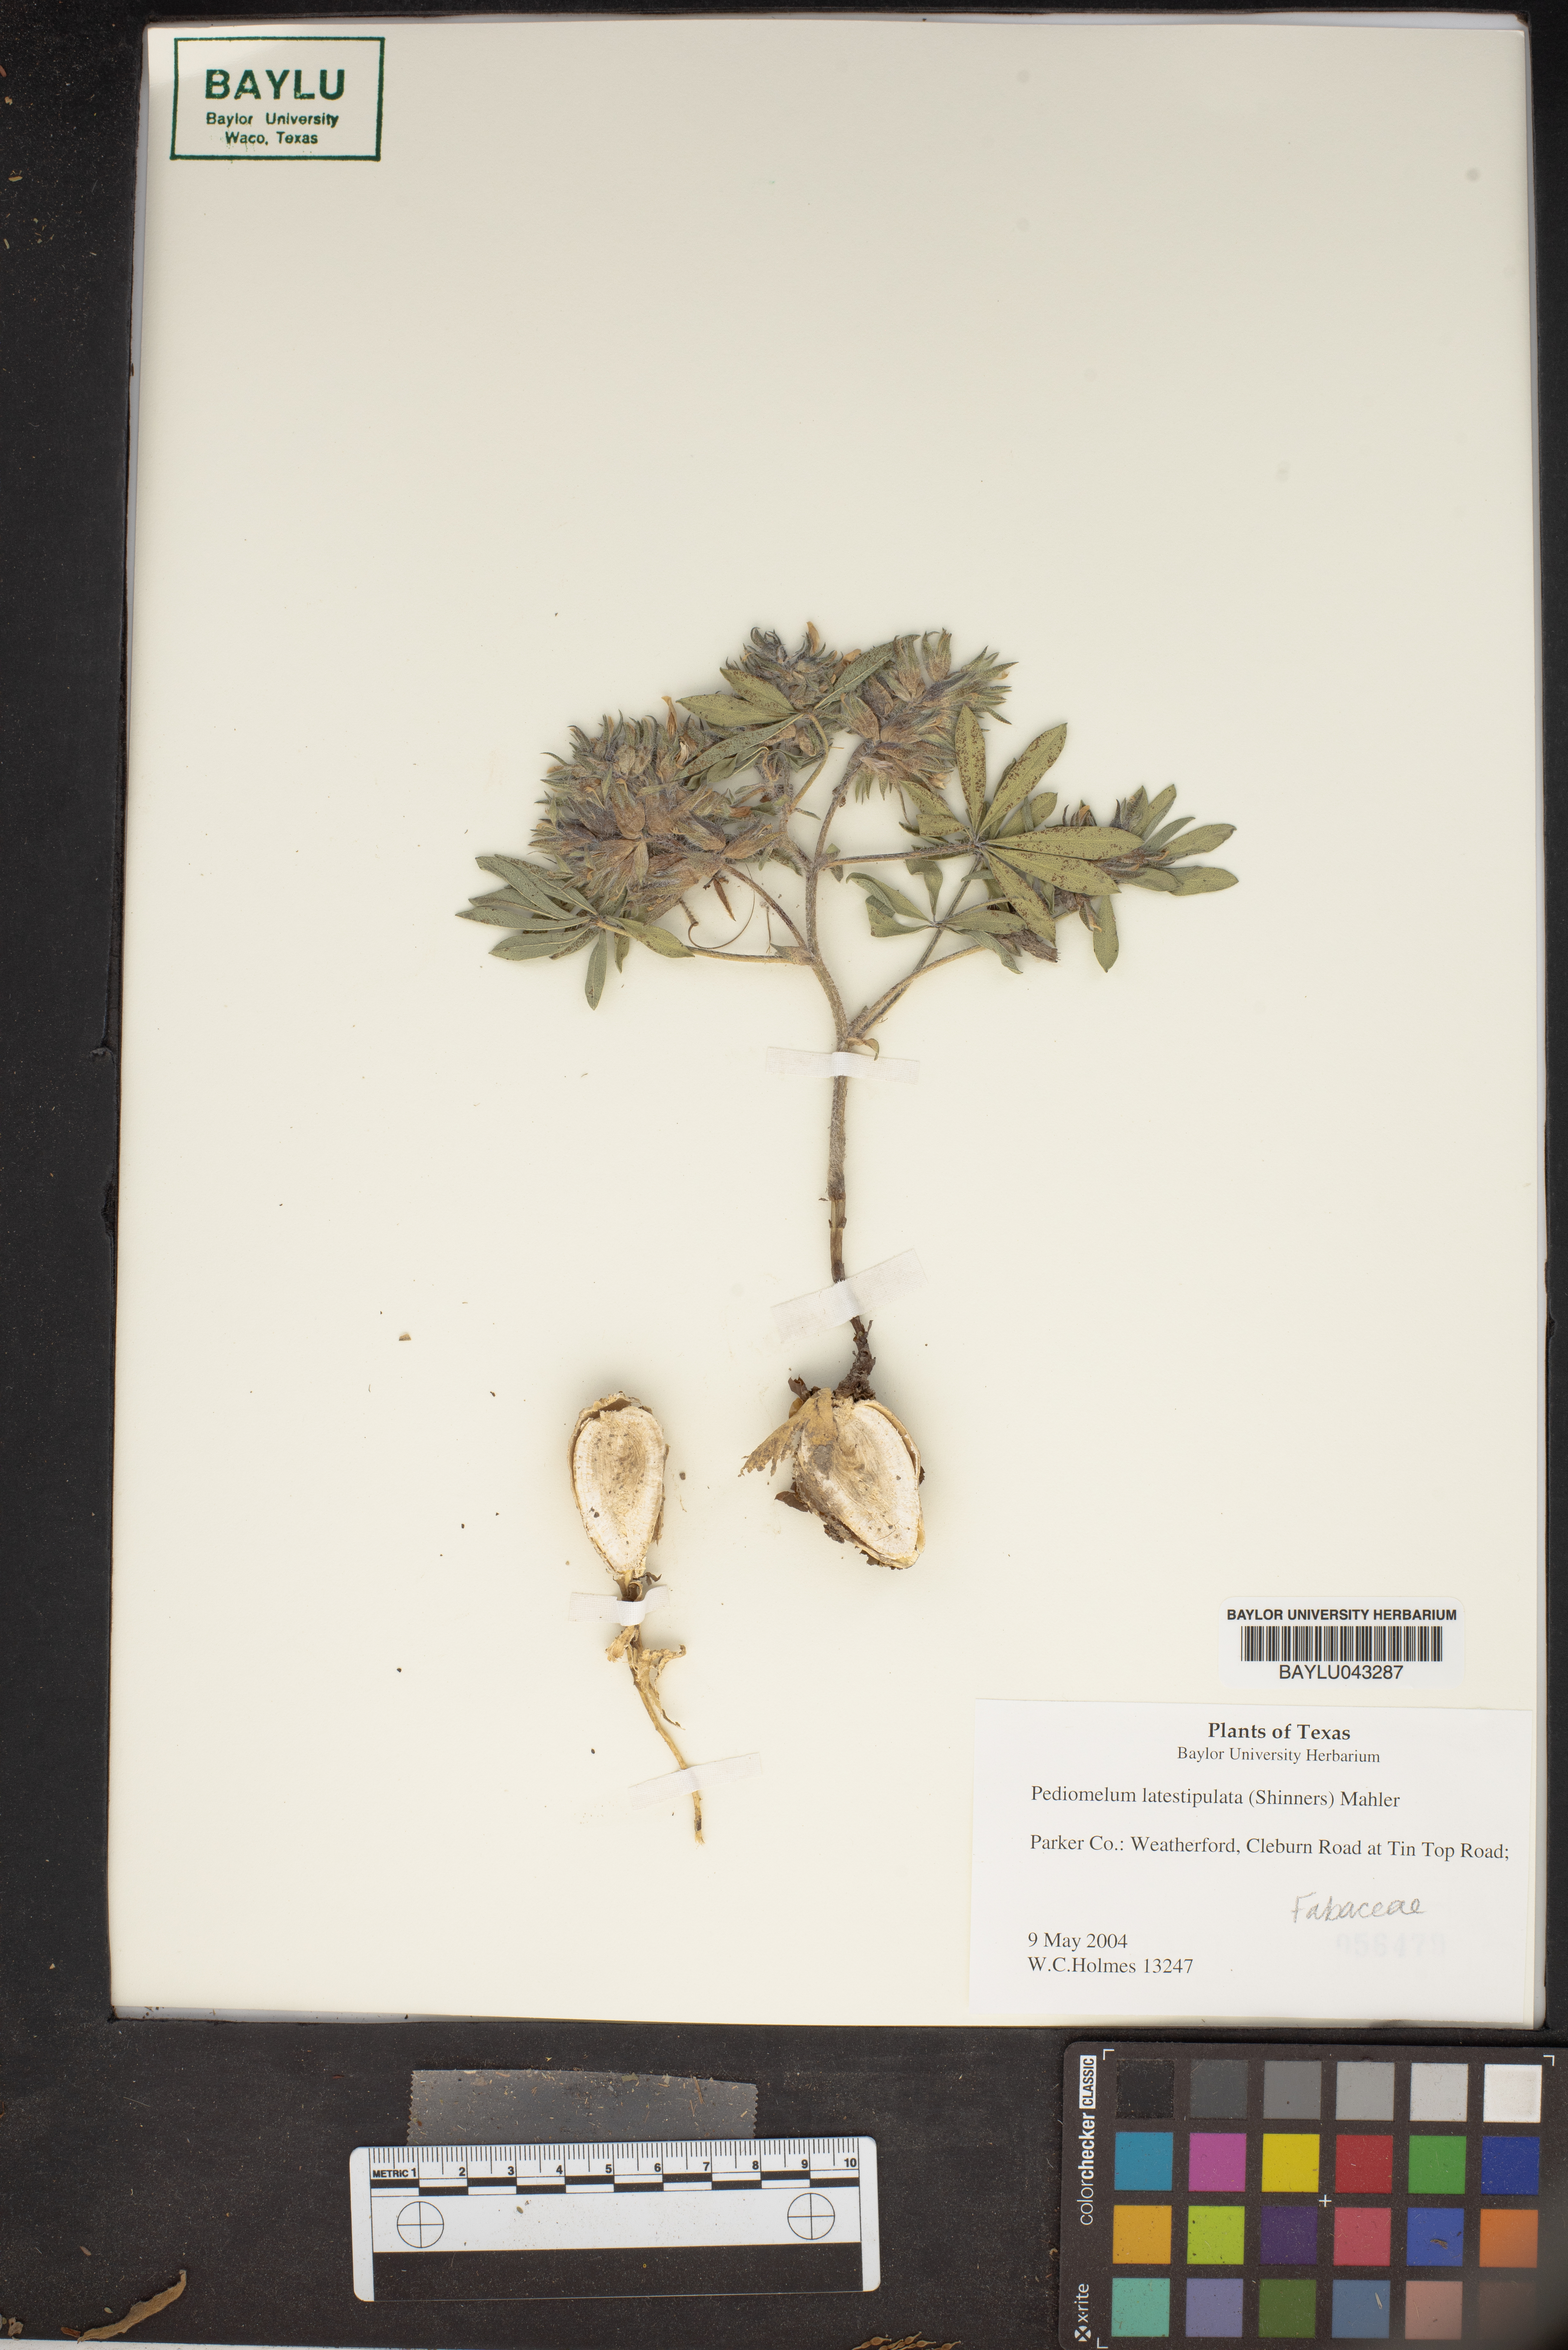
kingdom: Plantae
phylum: Tracheophyta
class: Magnoliopsida
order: Fabales
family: Fabaceae
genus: Pediomelum
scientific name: Pediomelum latestipulatum
